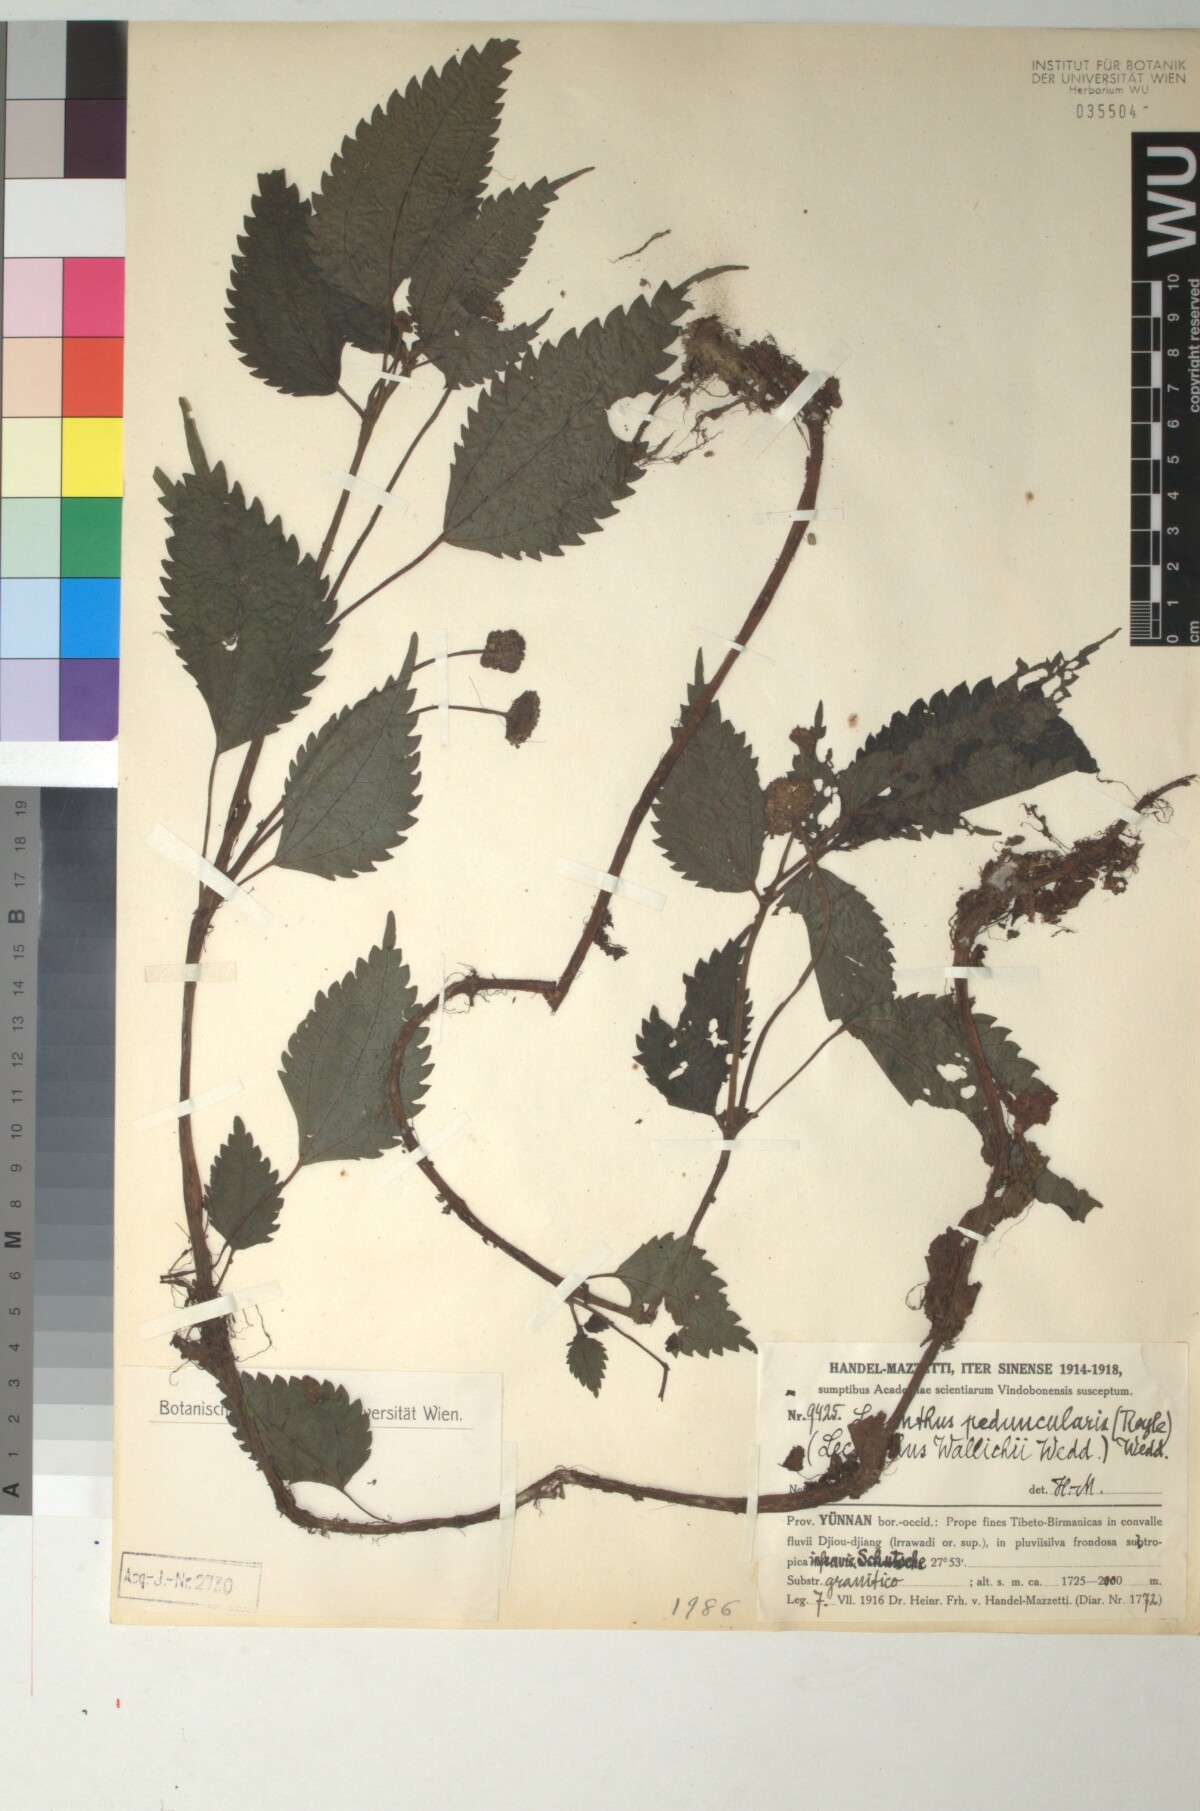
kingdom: Plantae
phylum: Tracheophyta
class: Magnoliopsida
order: Rosales
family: Urticaceae
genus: Lecanthus
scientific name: Lecanthus peduncularis
